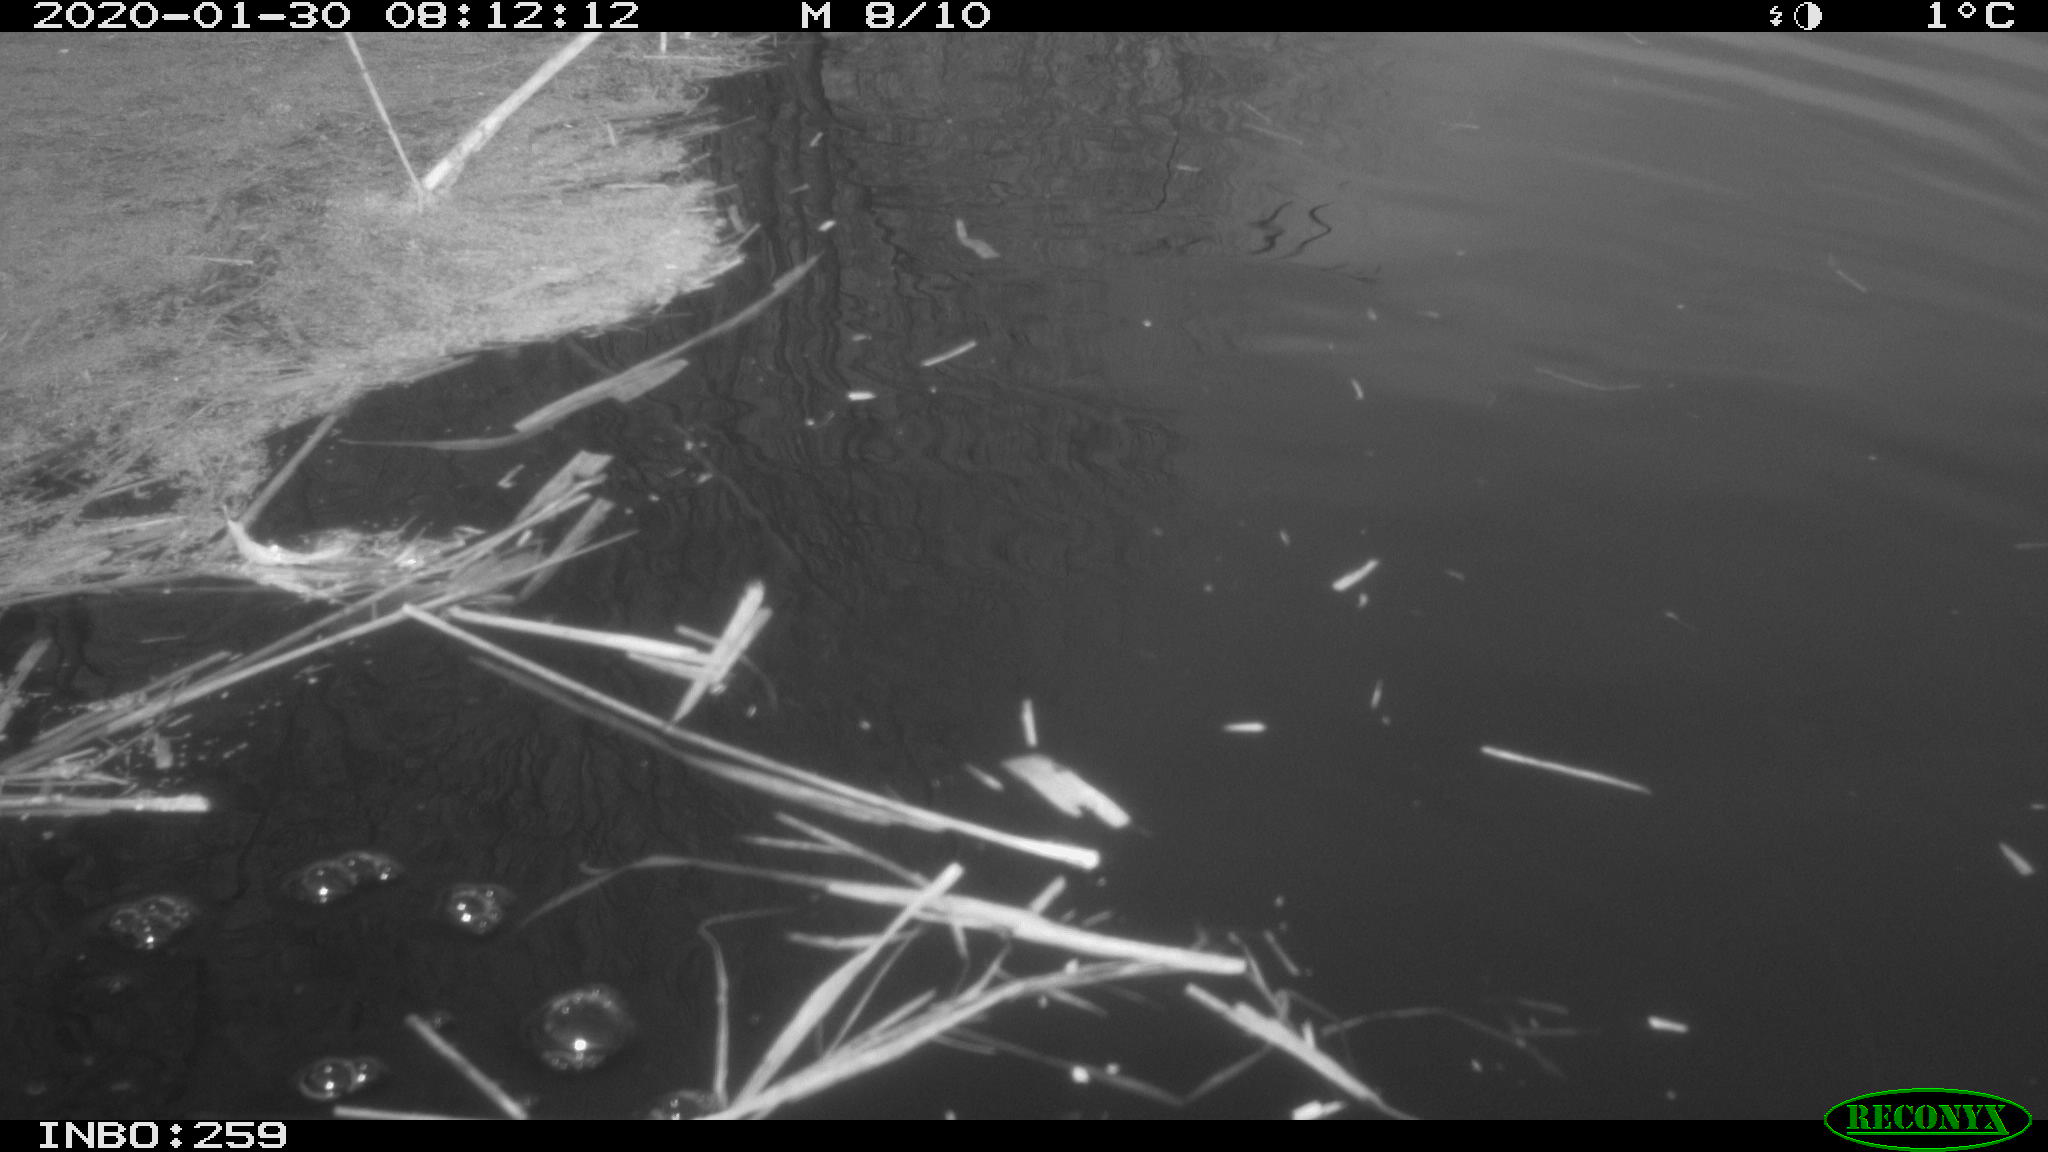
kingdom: Animalia
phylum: Chordata
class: Aves
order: Gruiformes
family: Rallidae
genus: Gallinula
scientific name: Gallinula chloropus
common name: Common moorhen
